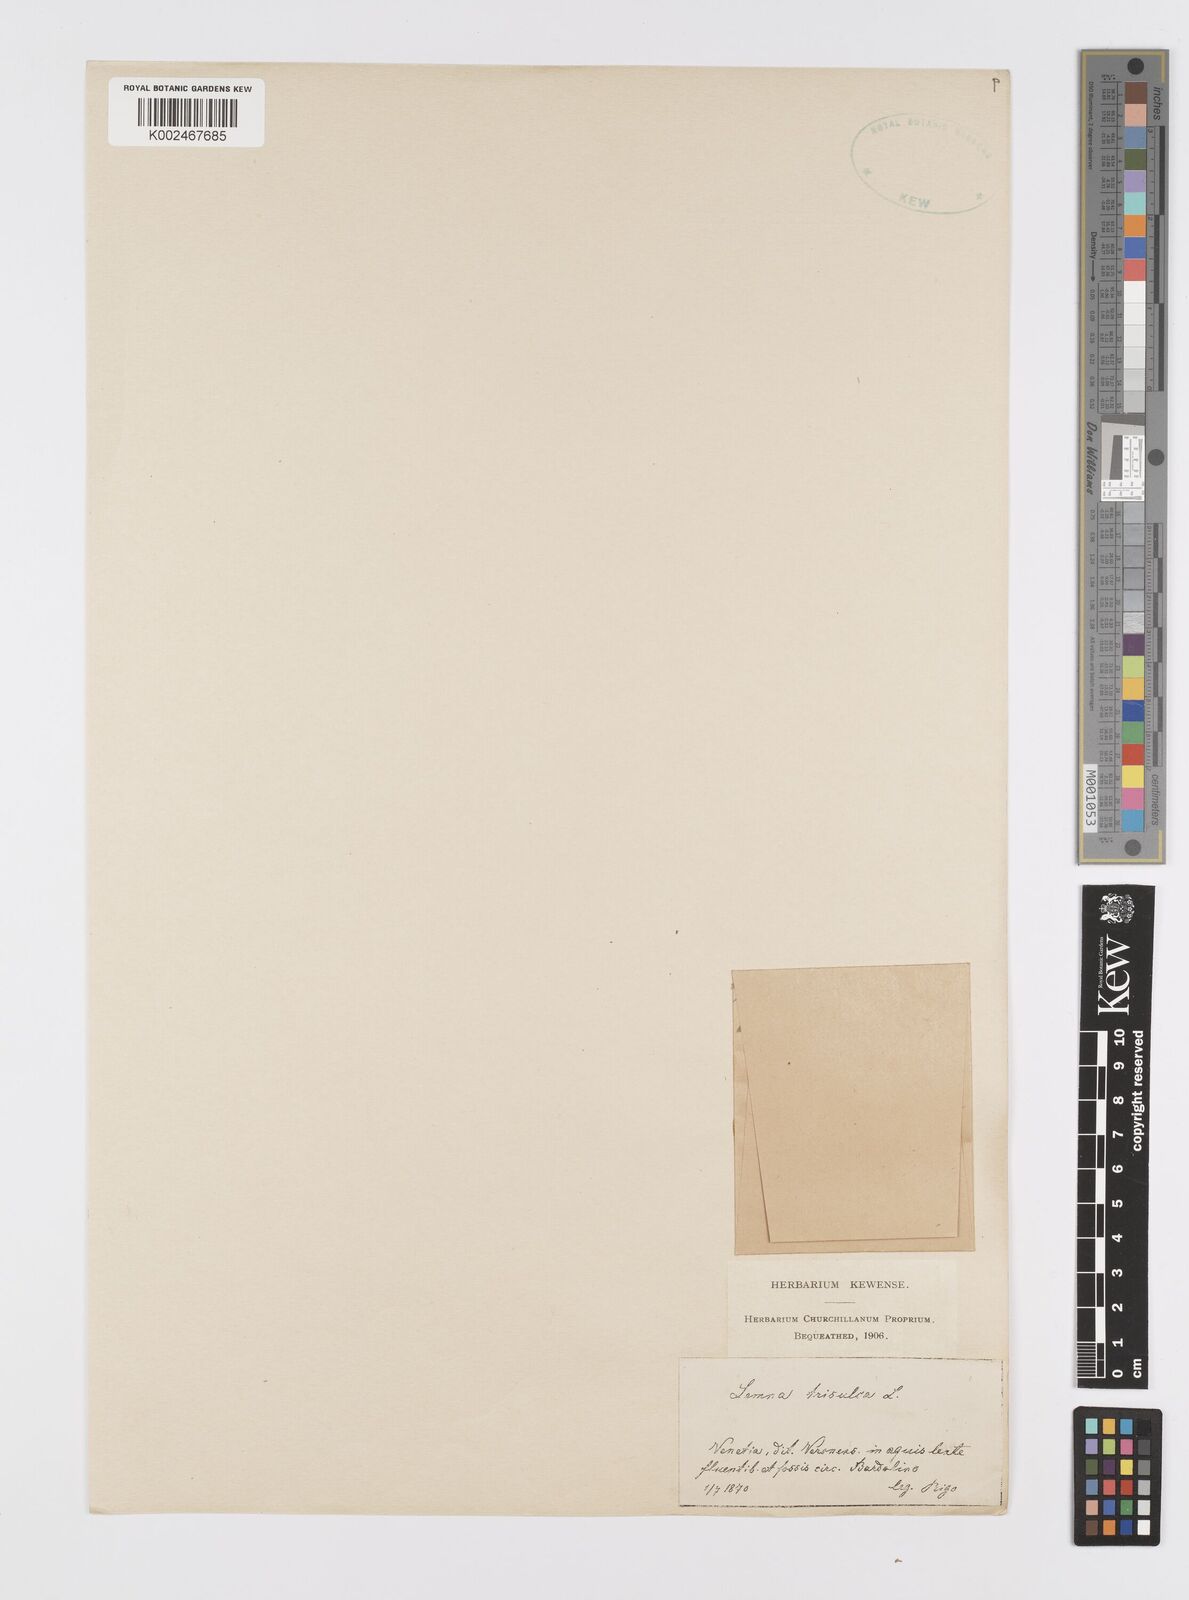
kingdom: Plantae
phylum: Tracheophyta
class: Liliopsida
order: Alismatales
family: Araceae
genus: Lemna
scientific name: Lemna trisulca
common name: Ivy-leaved duckweed
